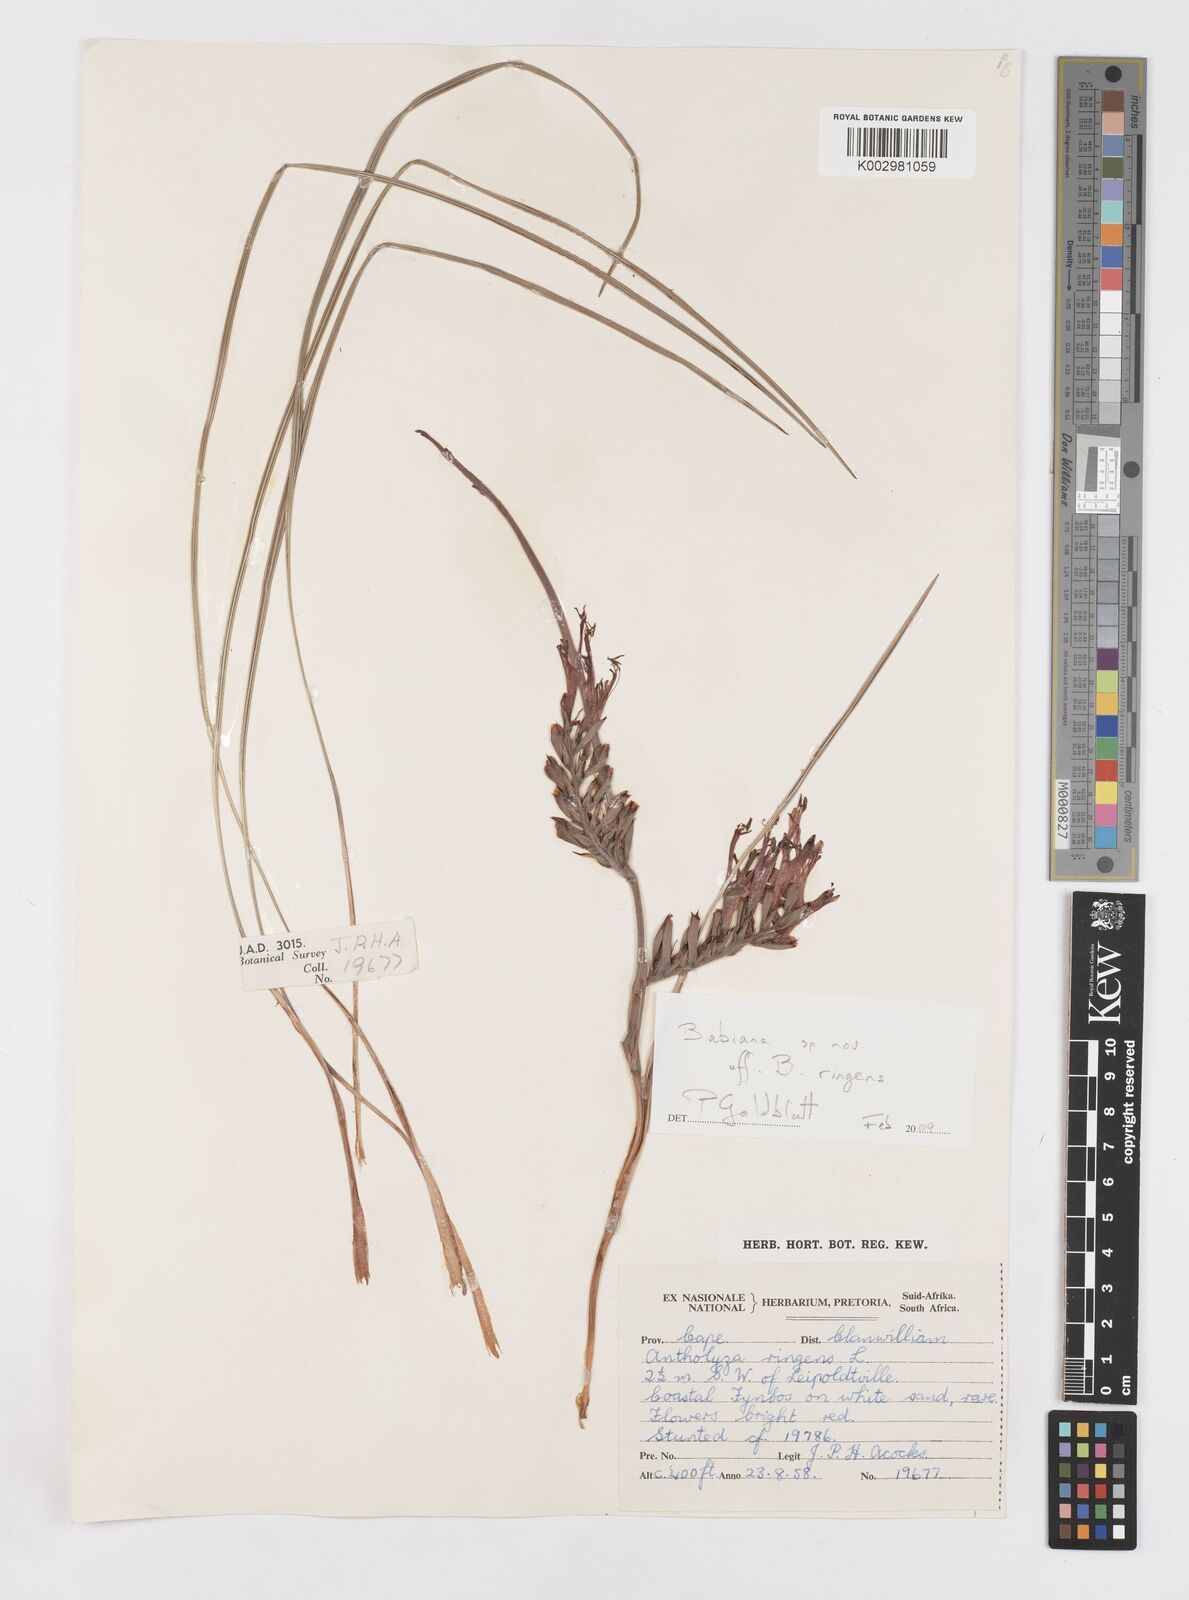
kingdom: Plantae
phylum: Tracheophyta
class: Liliopsida
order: Asparagales
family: Iridaceae
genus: Babiana
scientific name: Babiana ringens
